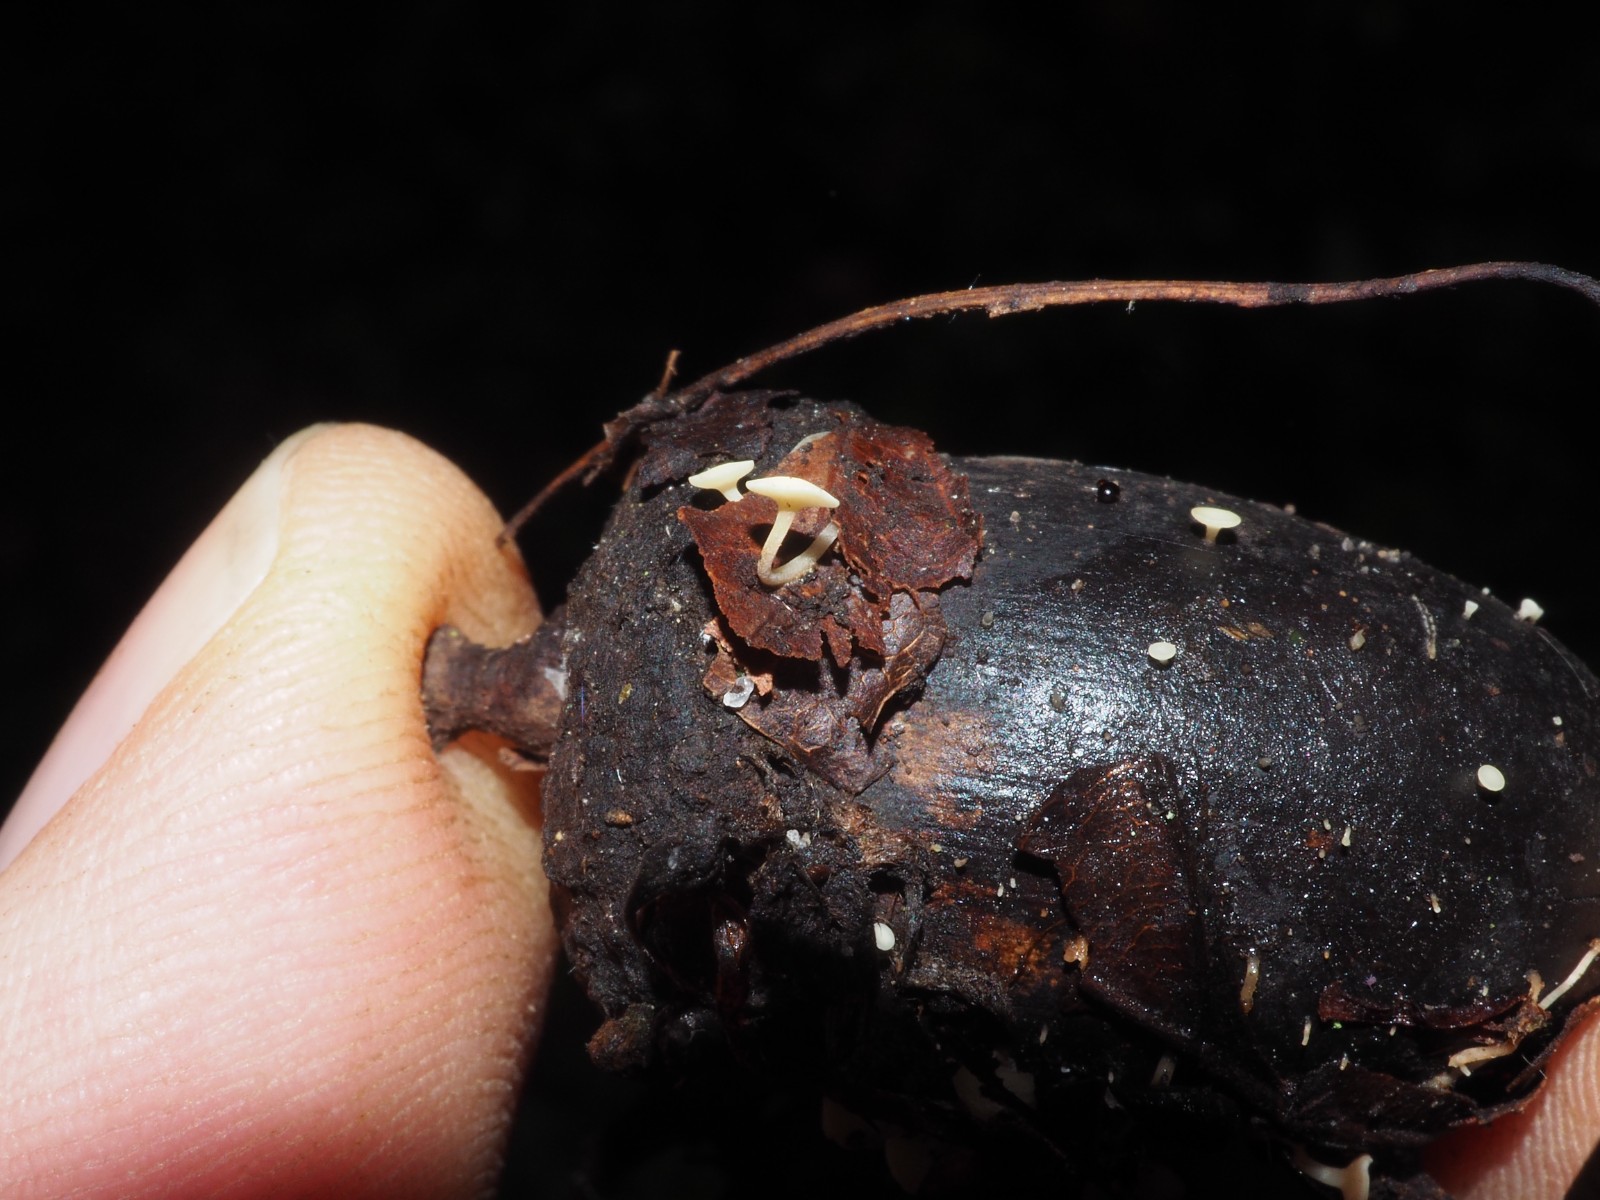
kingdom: Fungi
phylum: Ascomycota
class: Leotiomycetes
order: Helotiales
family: Helotiaceae
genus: Hymenoscyphus
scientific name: Hymenoscyphus fructigenus
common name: frugt-stilkskive
